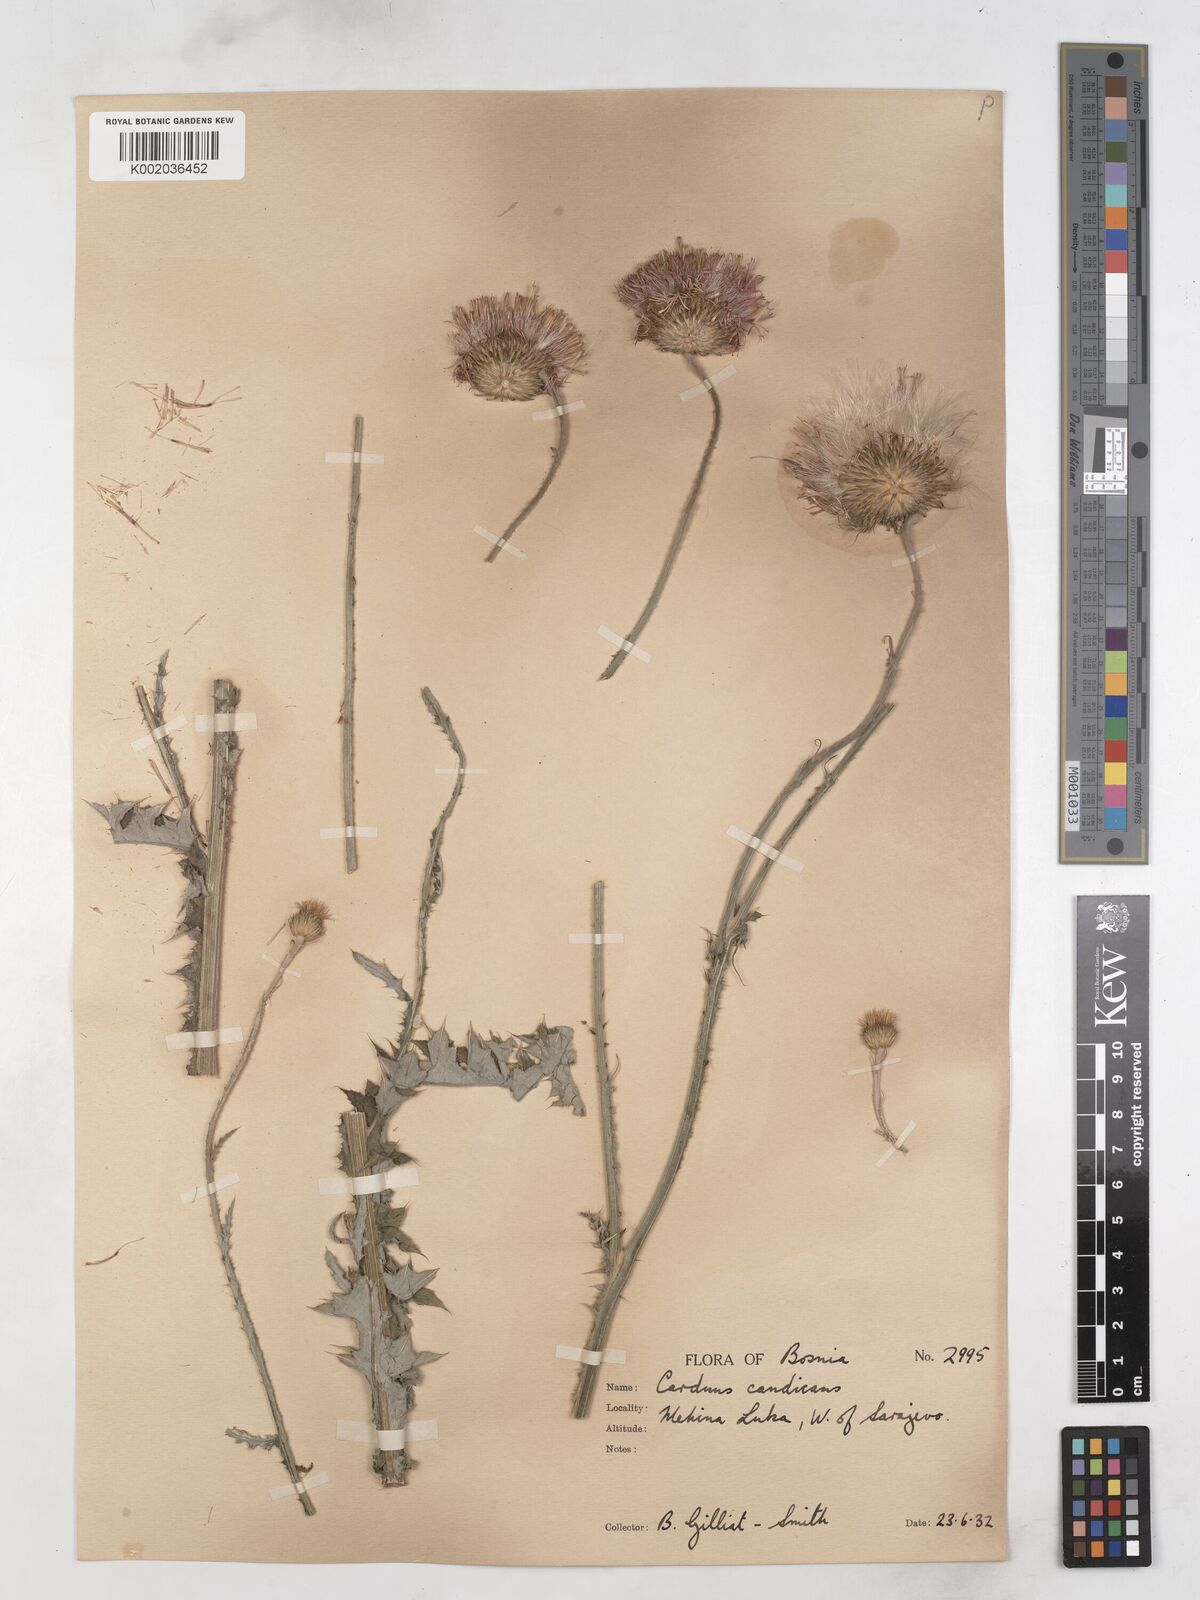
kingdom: Plantae
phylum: Tracheophyta
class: Magnoliopsida
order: Asterales
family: Asteraceae
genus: Carduus
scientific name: Carduus candicans
